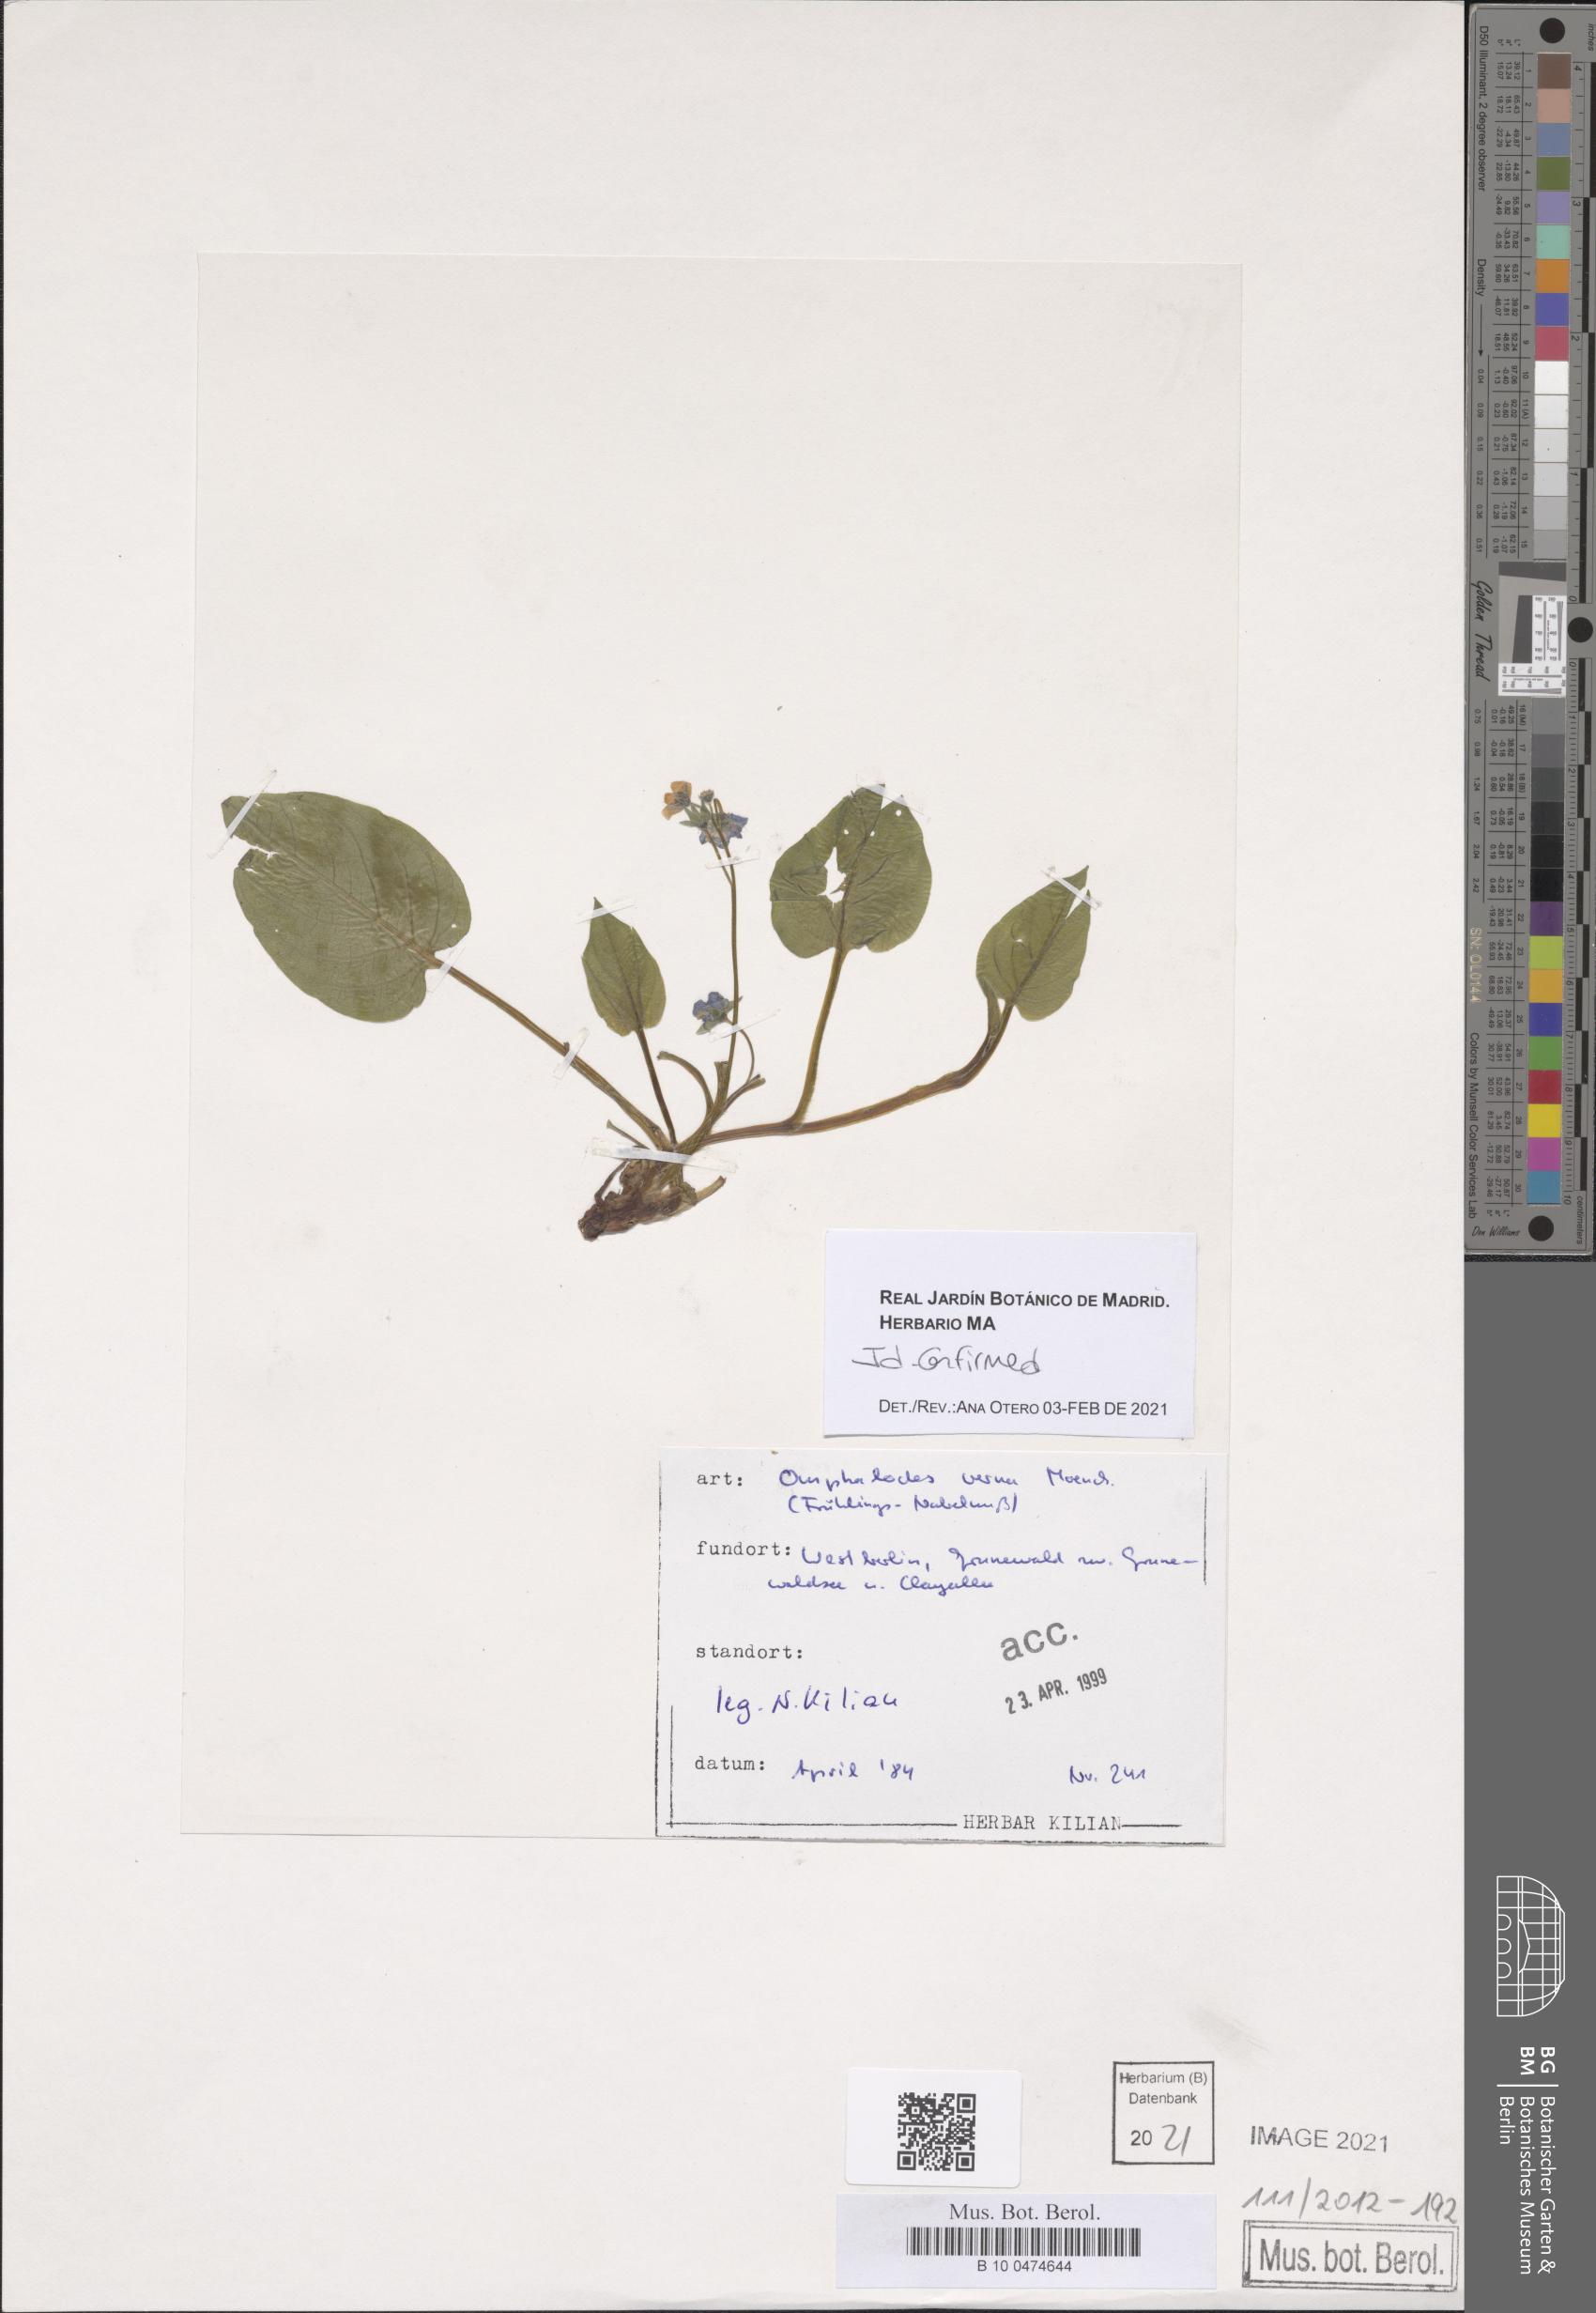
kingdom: Plantae
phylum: Tracheophyta
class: Magnoliopsida
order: Boraginales
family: Boraginaceae
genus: Omphalodes
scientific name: Omphalodes verna
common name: Blue-eyed-mary
